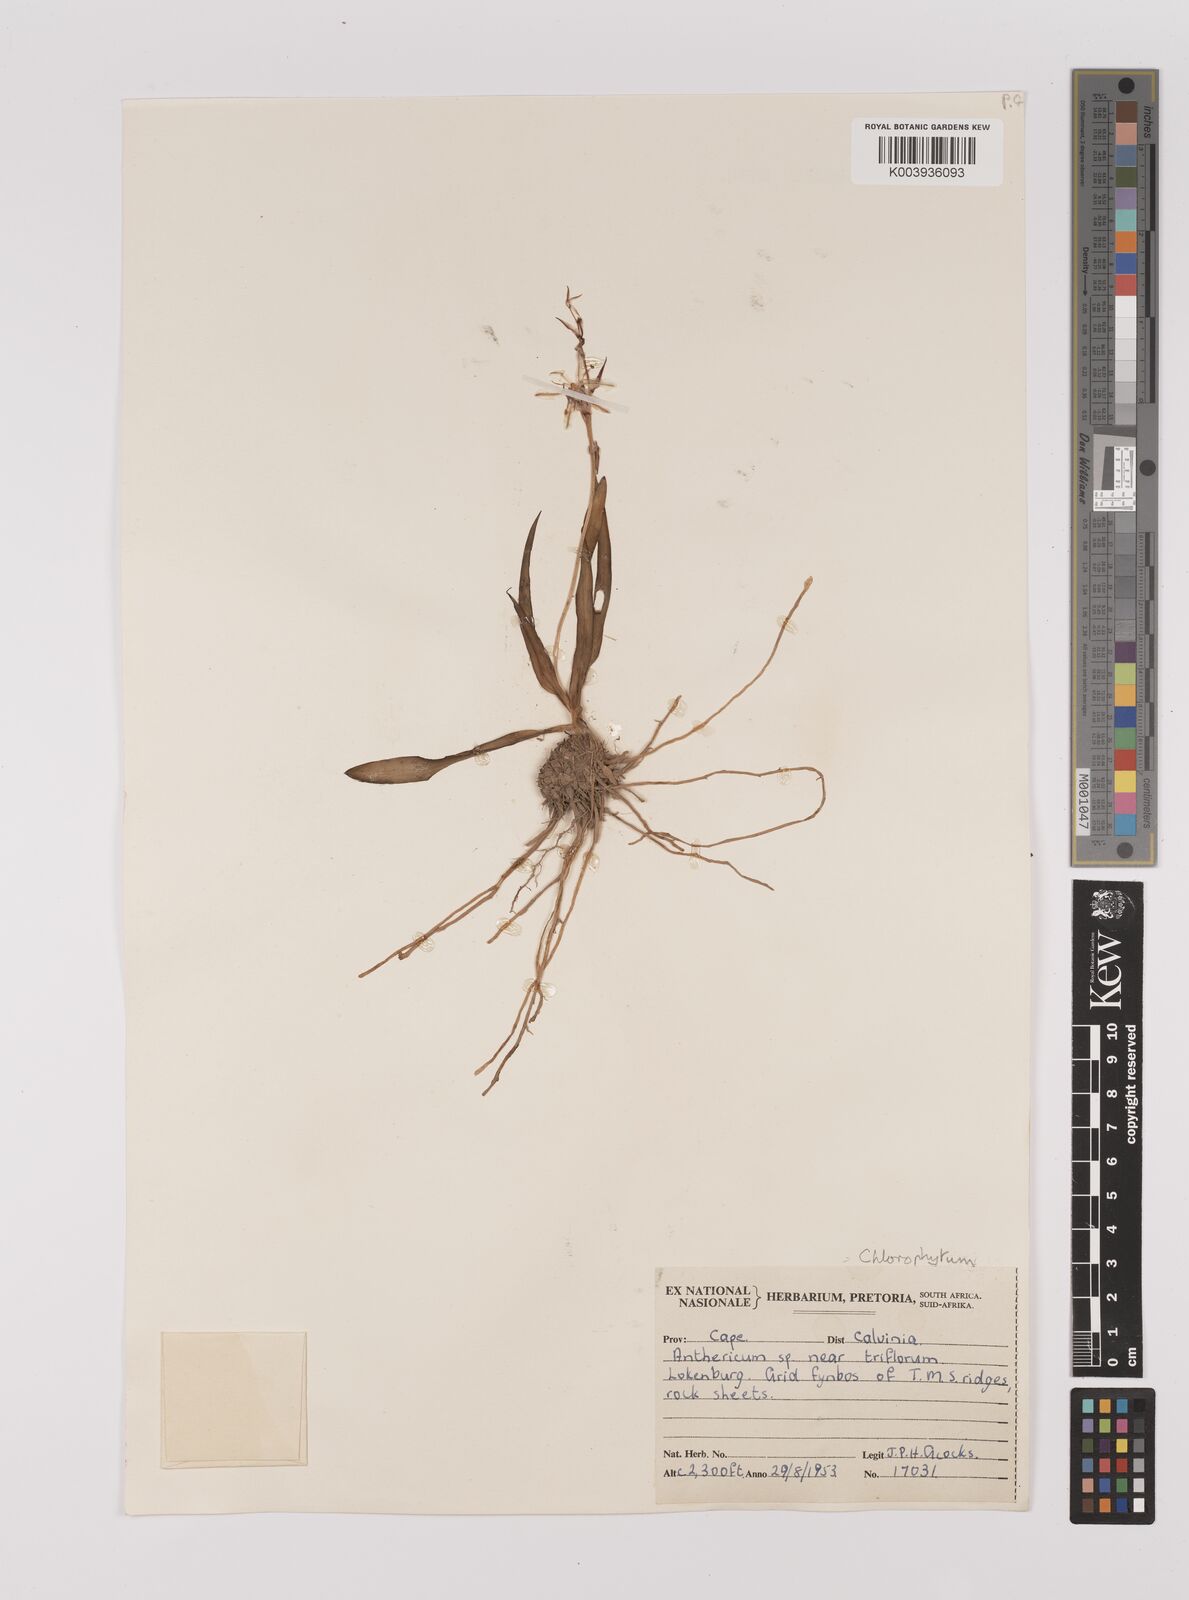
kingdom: Plantae
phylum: Tracheophyta
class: Liliopsida
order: Asparagales
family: Asparagaceae
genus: Chlorophytum
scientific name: Chlorophytum triflorum
